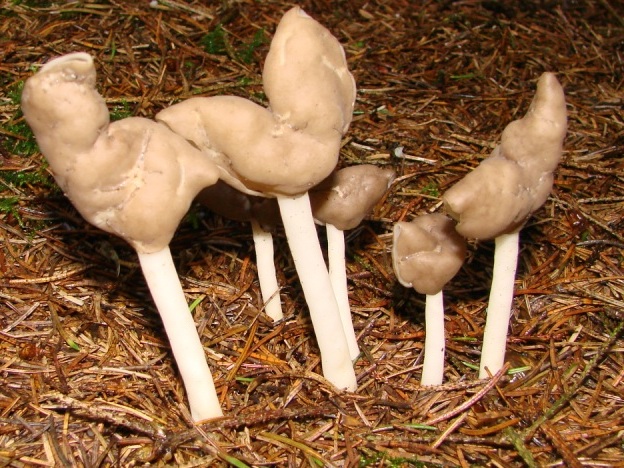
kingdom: Fungi
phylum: Ascomycota
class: Pezizomycetes
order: Pezizales
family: Helvellaceae
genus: Helvella
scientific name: Helvella elastica
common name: elastik-foldhat
